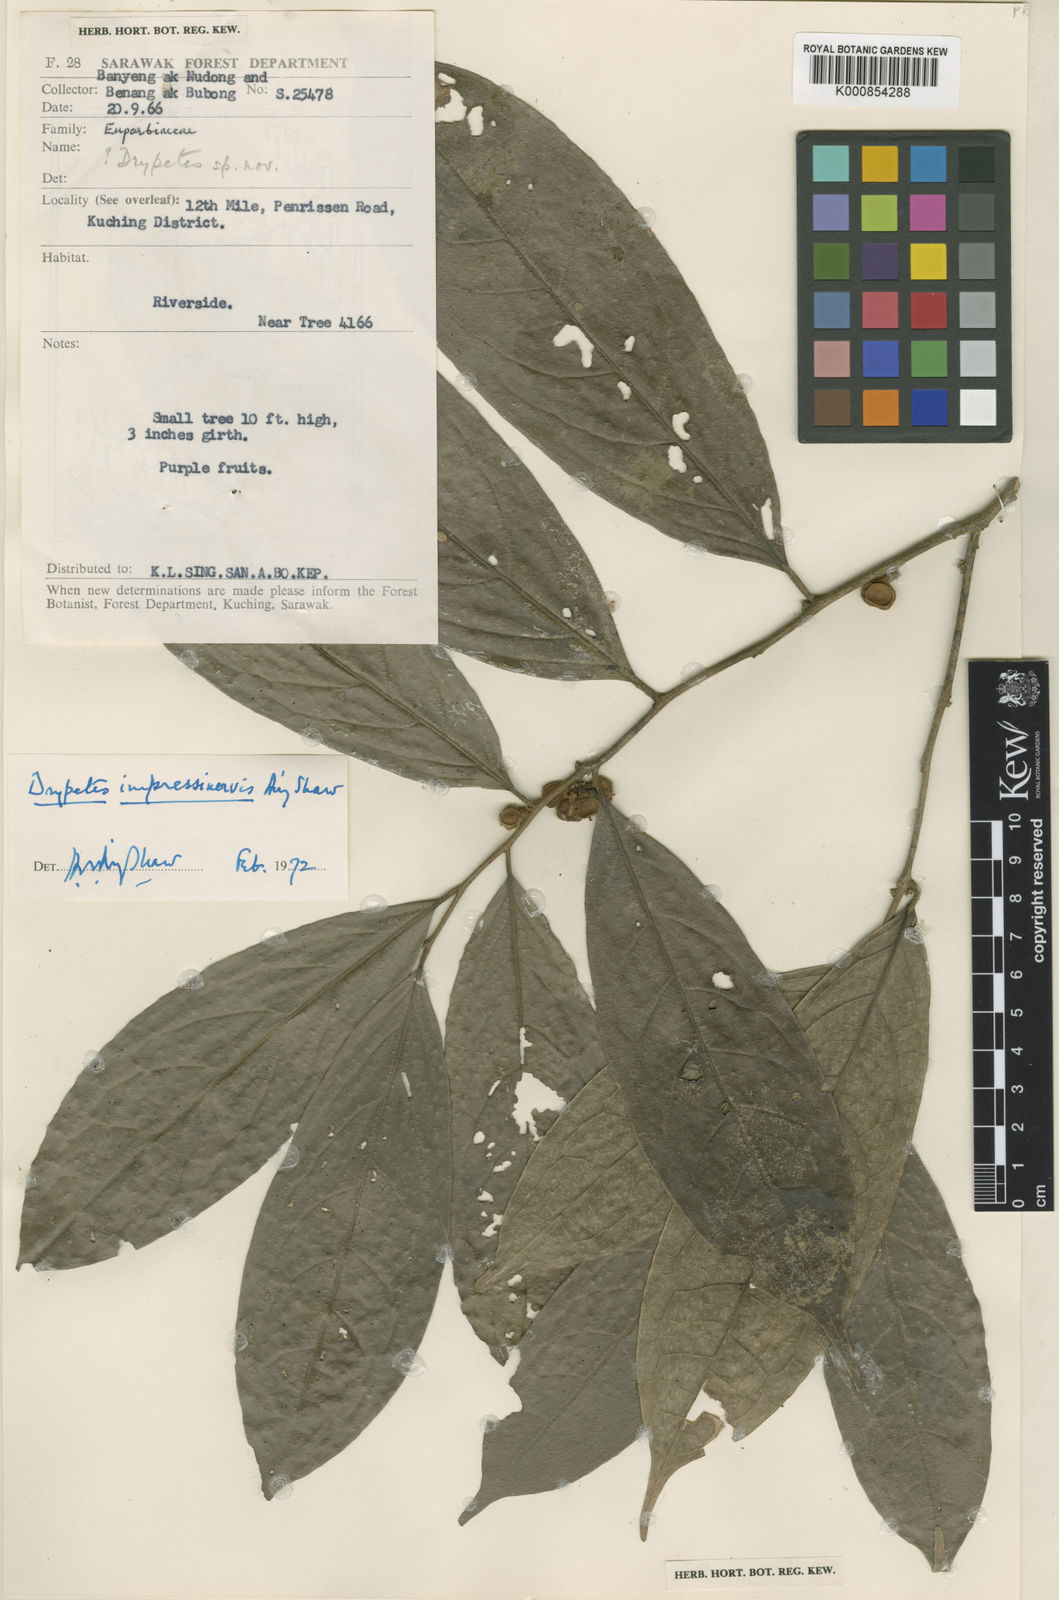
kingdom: Plantae
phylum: Tracheophyta
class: Magnoliopsida
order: Malpighiales
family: Putranjivaceae
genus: Drypetes
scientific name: Drypetes impressinervis
